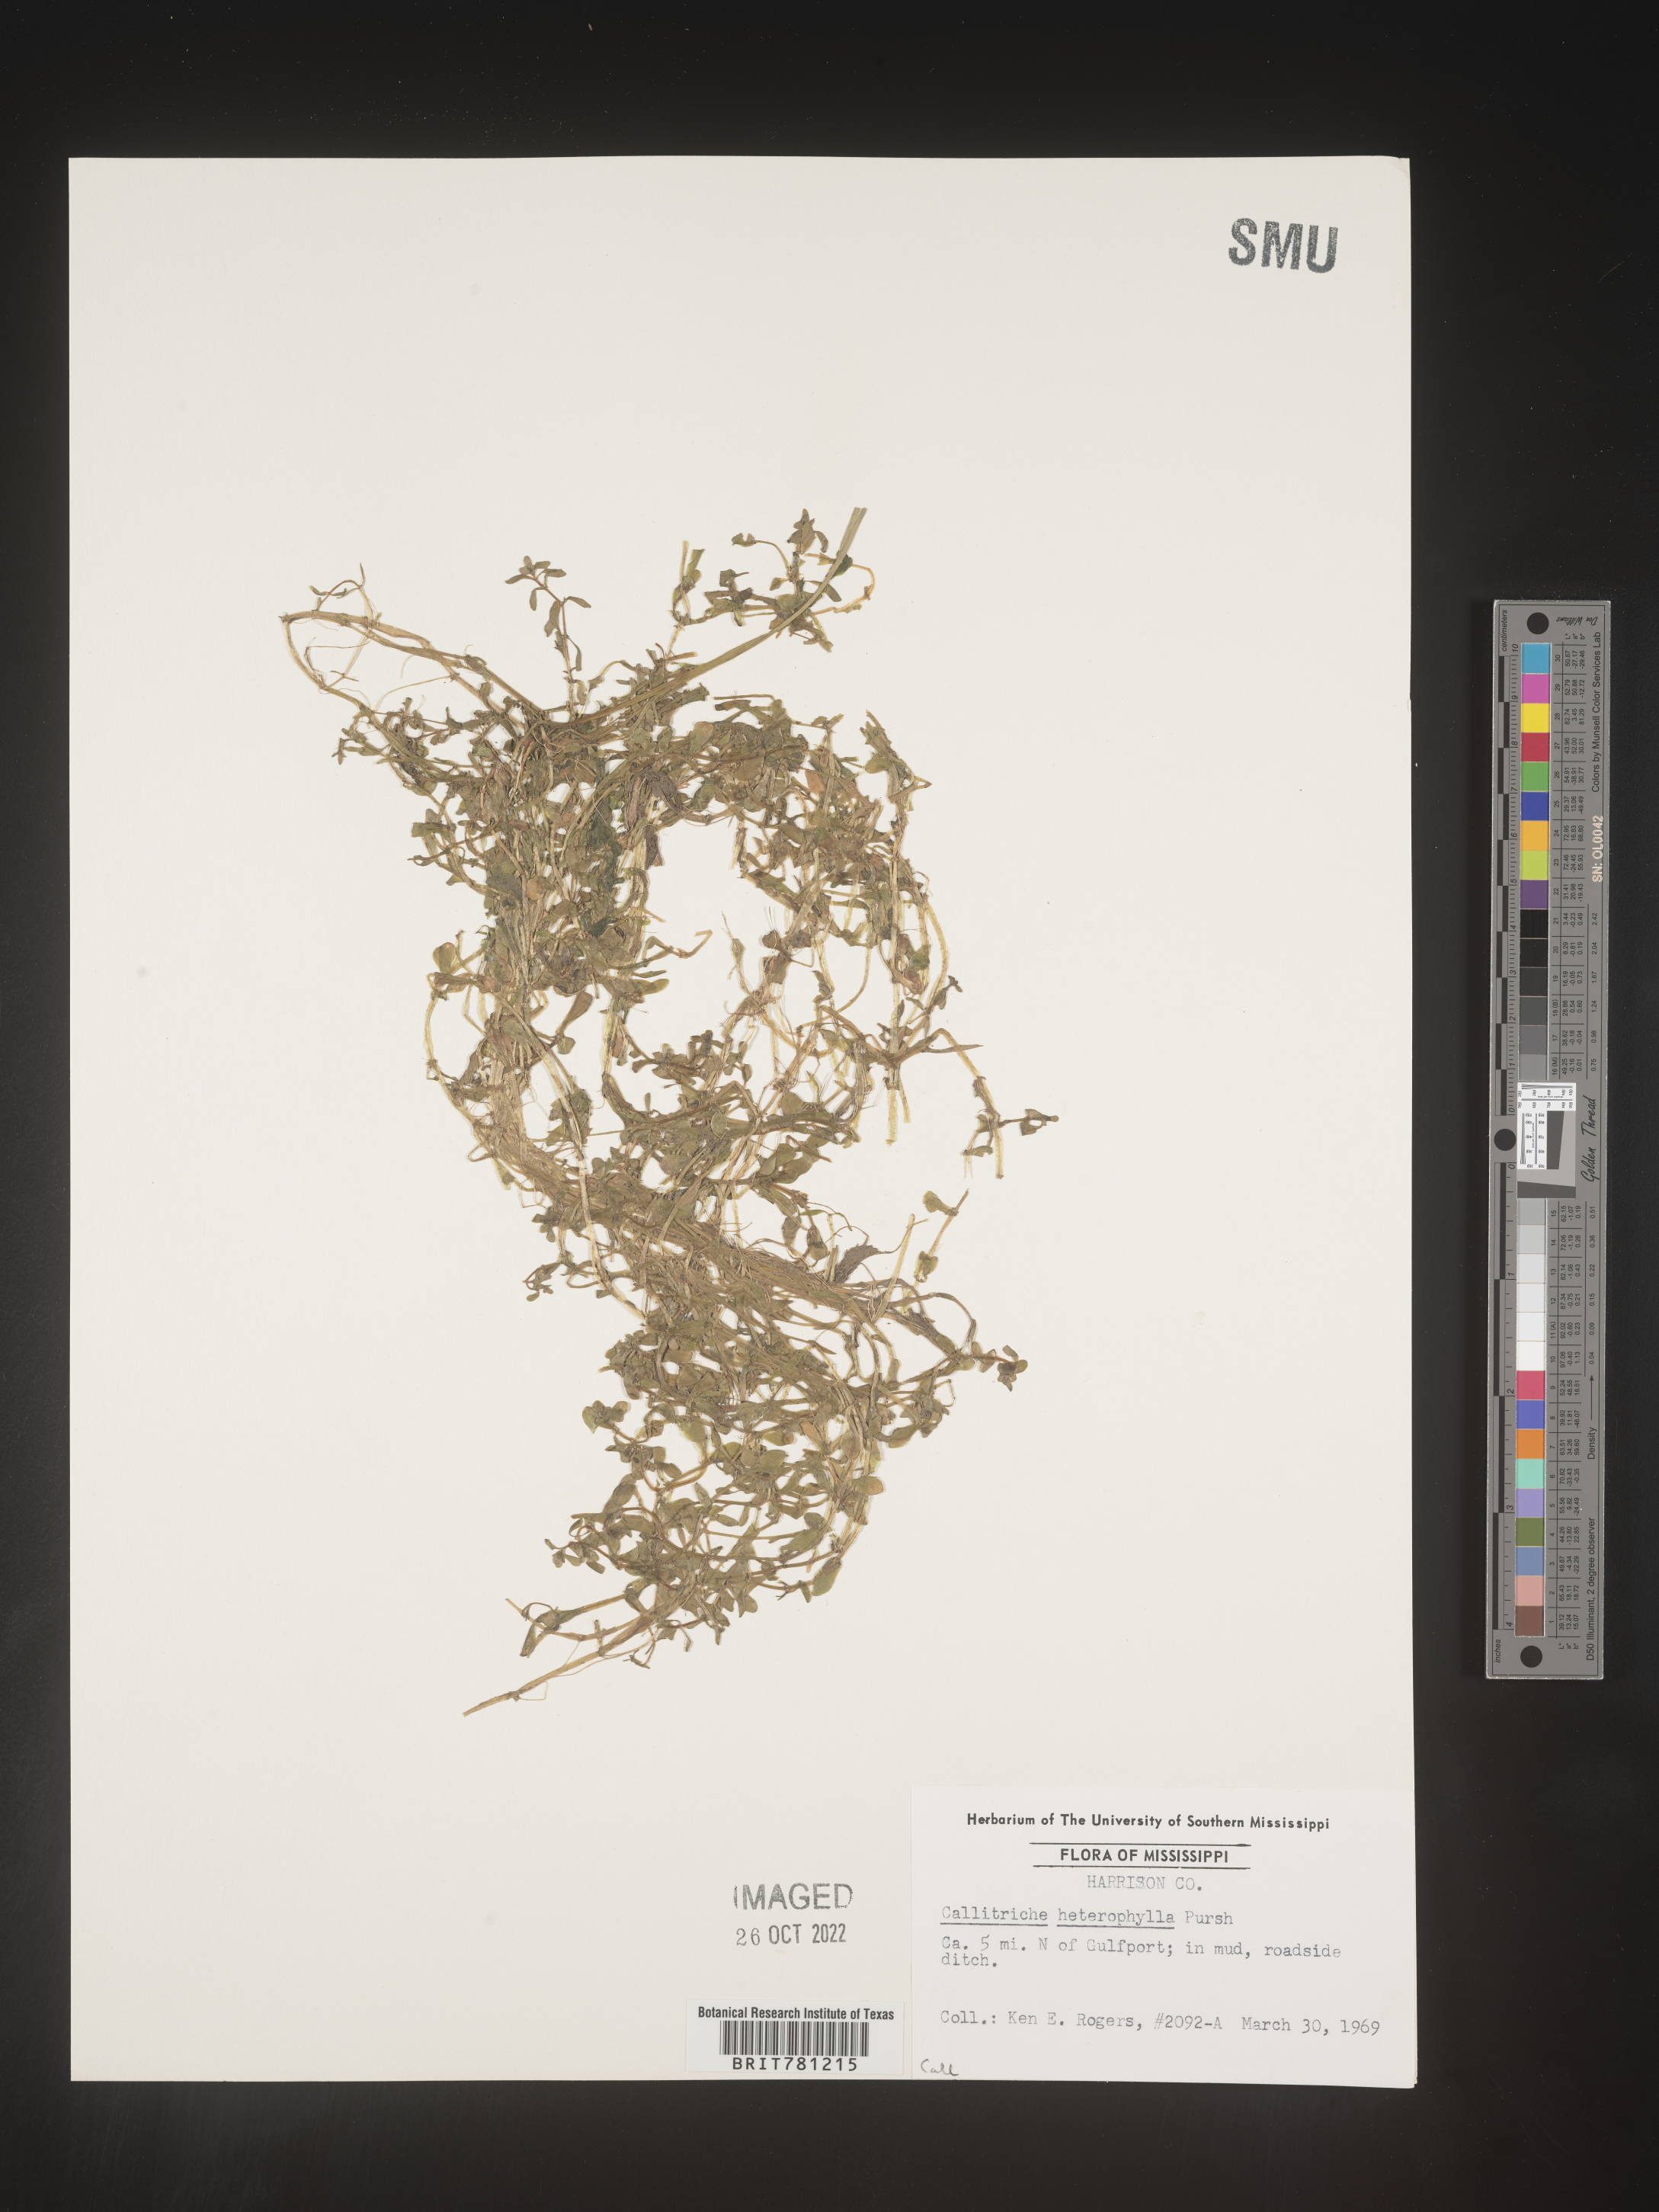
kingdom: Plantae
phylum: Tracheophyta
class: Magnoliopsida
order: Lamiales
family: Plantaginaceae
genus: Callitriche
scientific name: Callitriche heterophylla
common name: Two-headed water-starwort
